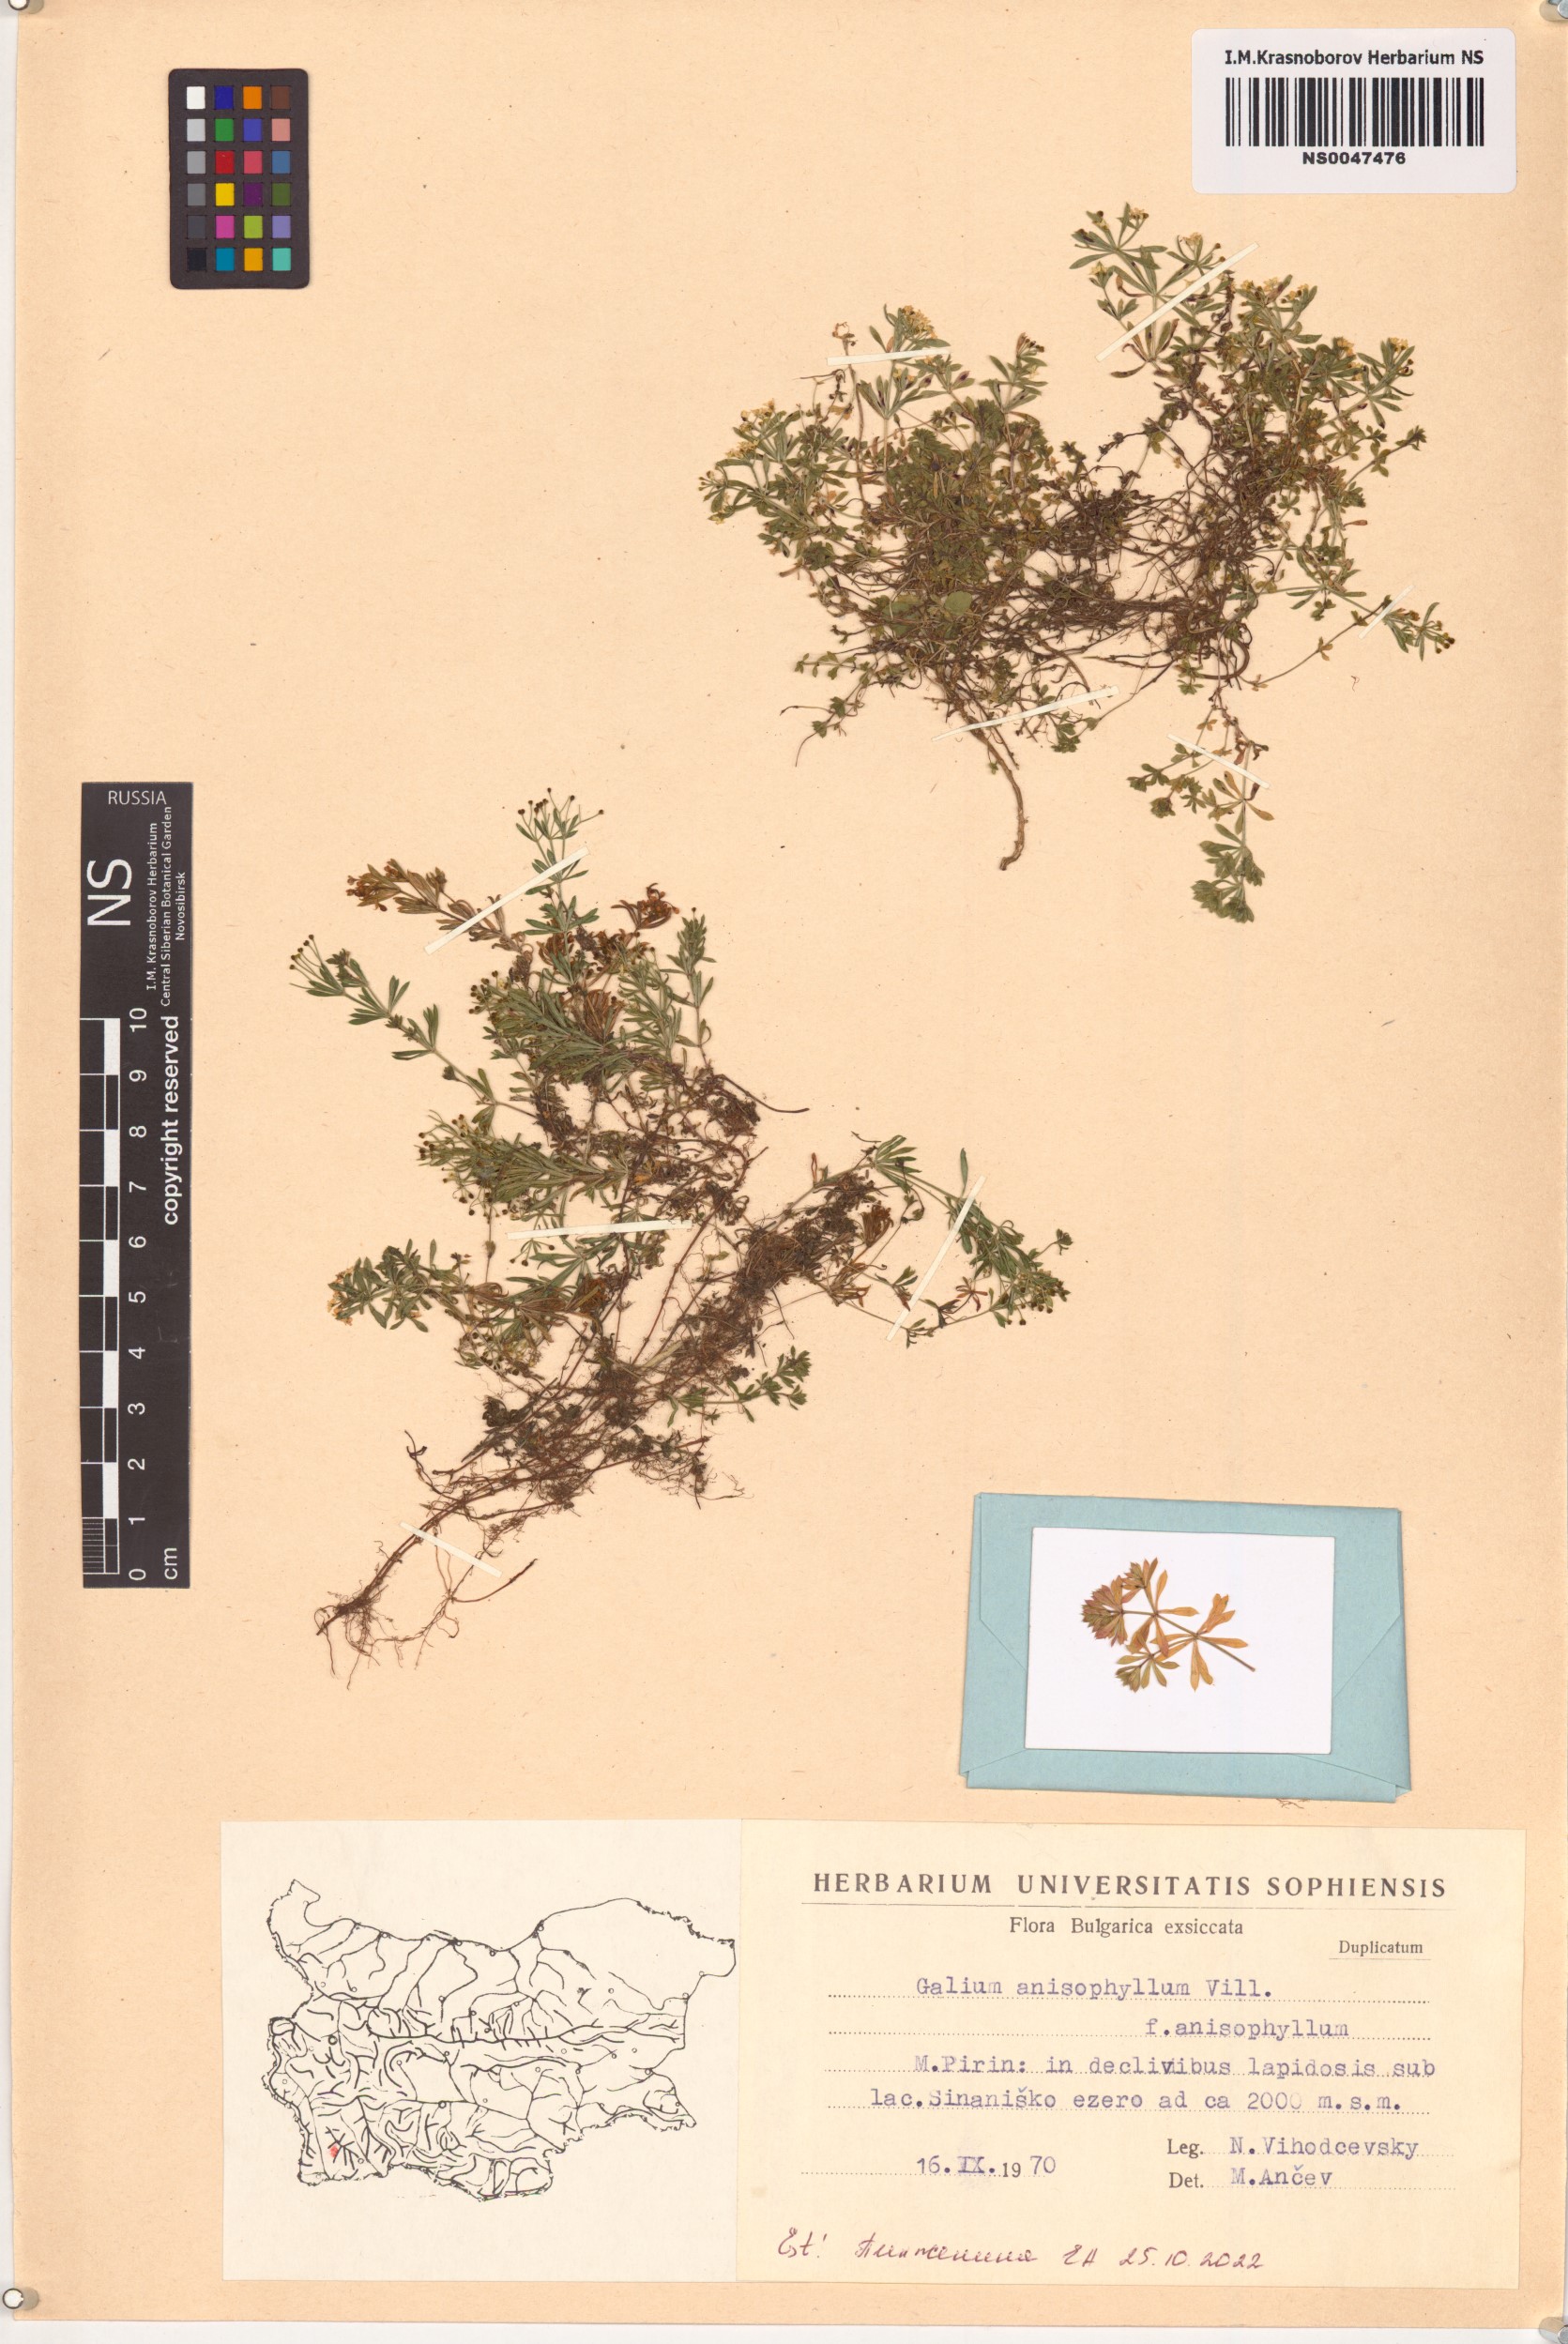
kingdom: Plantae
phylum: Tracheophyta
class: Magnoliopsida
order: Gentianales
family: Rubiaceae
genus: Galium
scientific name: Galium anisophyllon
